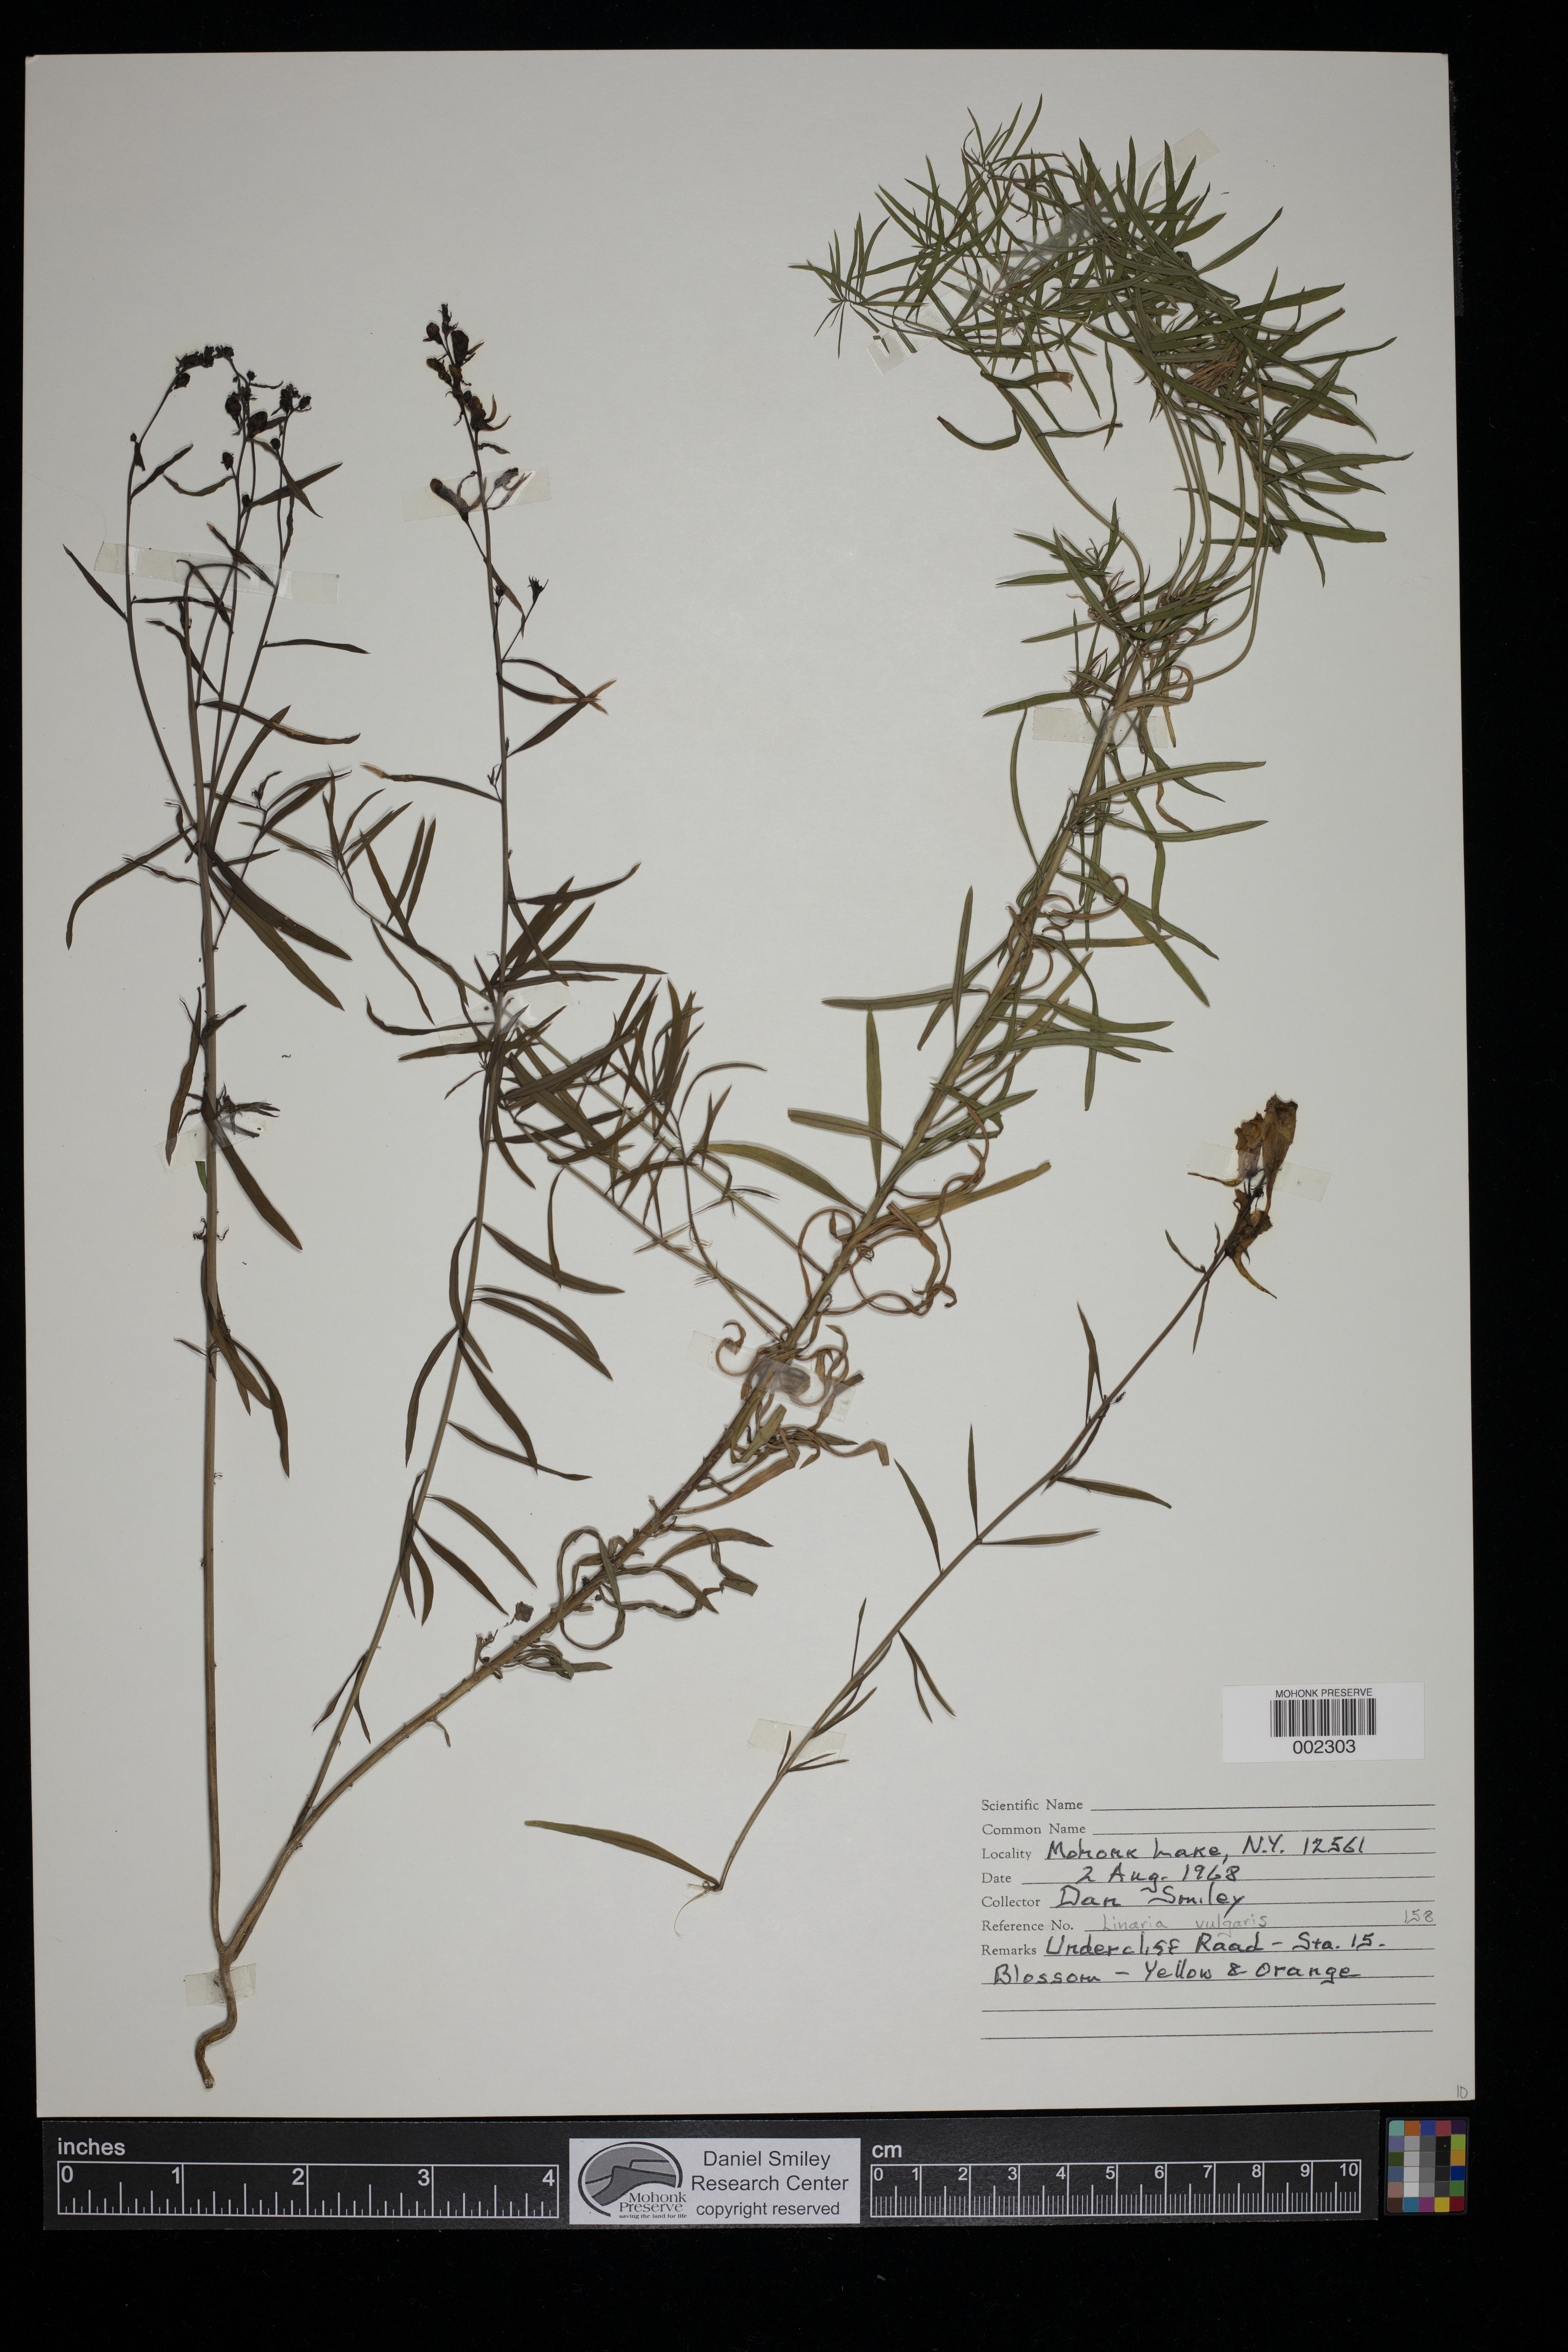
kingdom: Plantae
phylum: Tracheophyta
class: Magnoliopsida
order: Lamiales
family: Plantaginaceae
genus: Linaria
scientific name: Linaria vulgaris
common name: Butter and eggs
